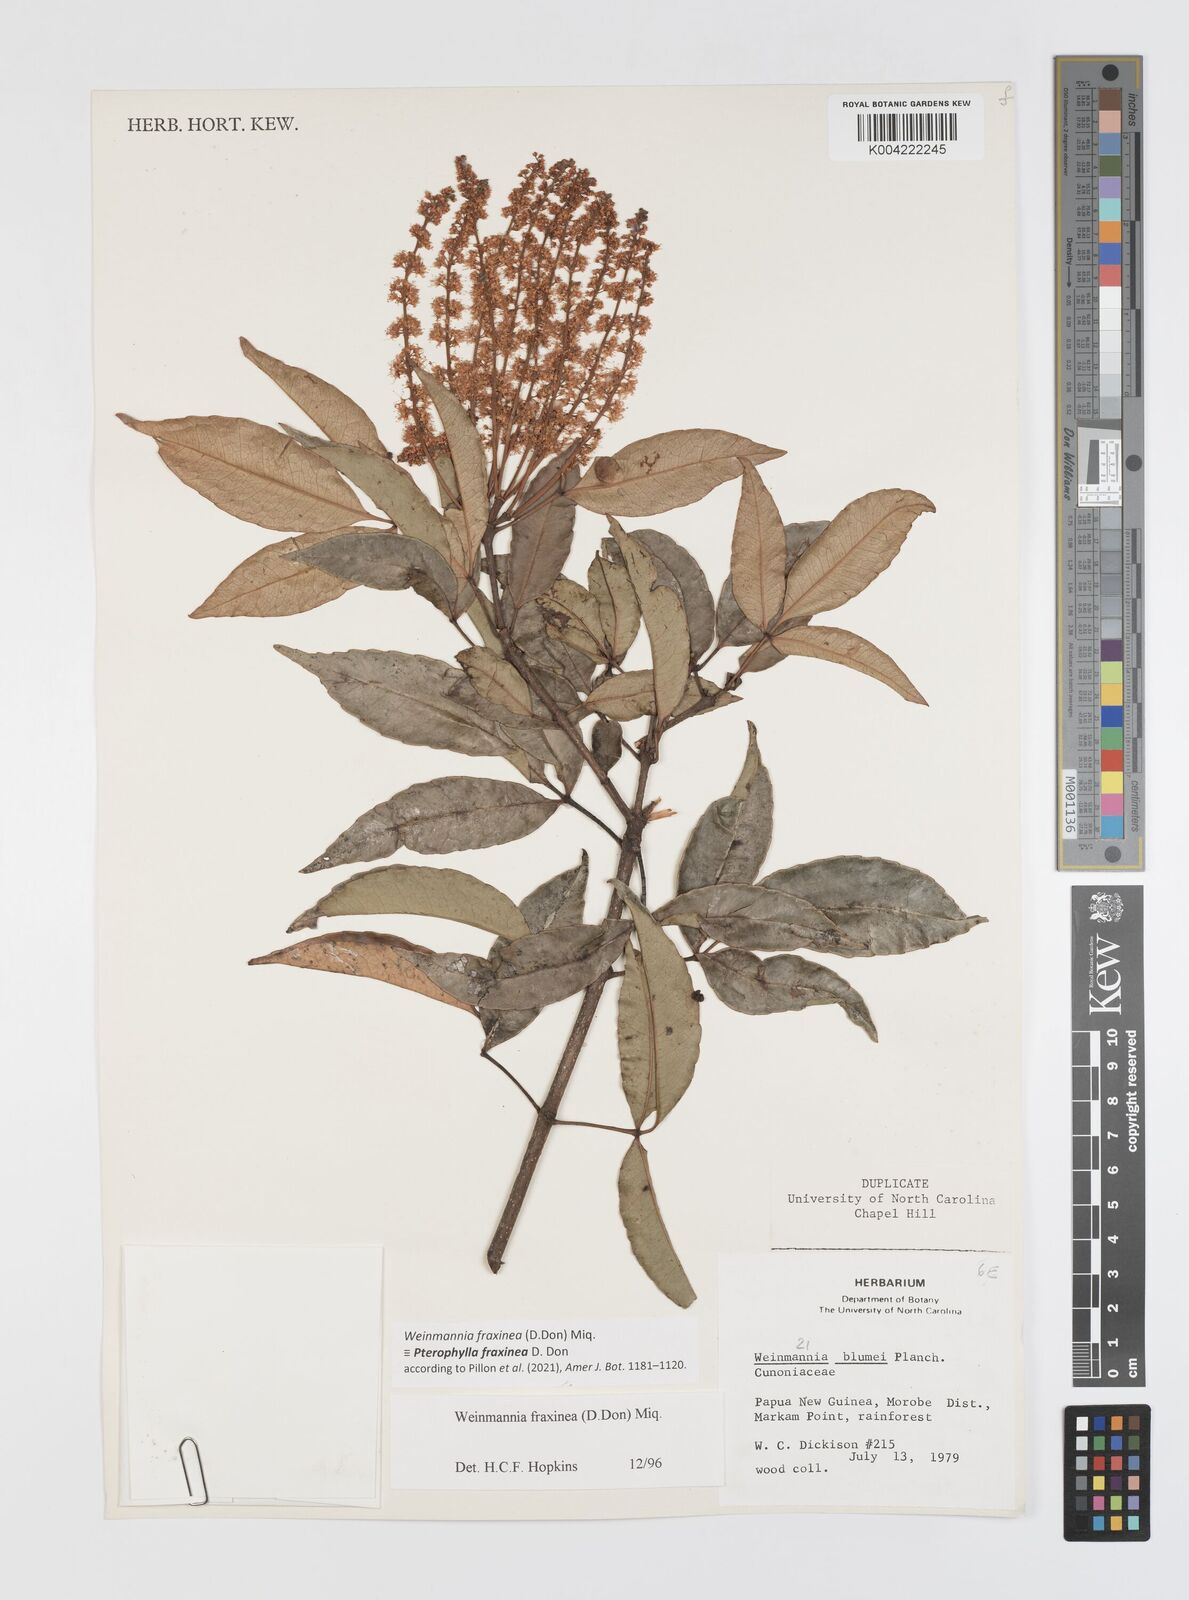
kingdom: Plantae
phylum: Tracheophyta
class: Magnoliopsida
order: Oxalidales
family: Cunoniaceae
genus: Pterophylla
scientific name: Pterophylla fraxinea
